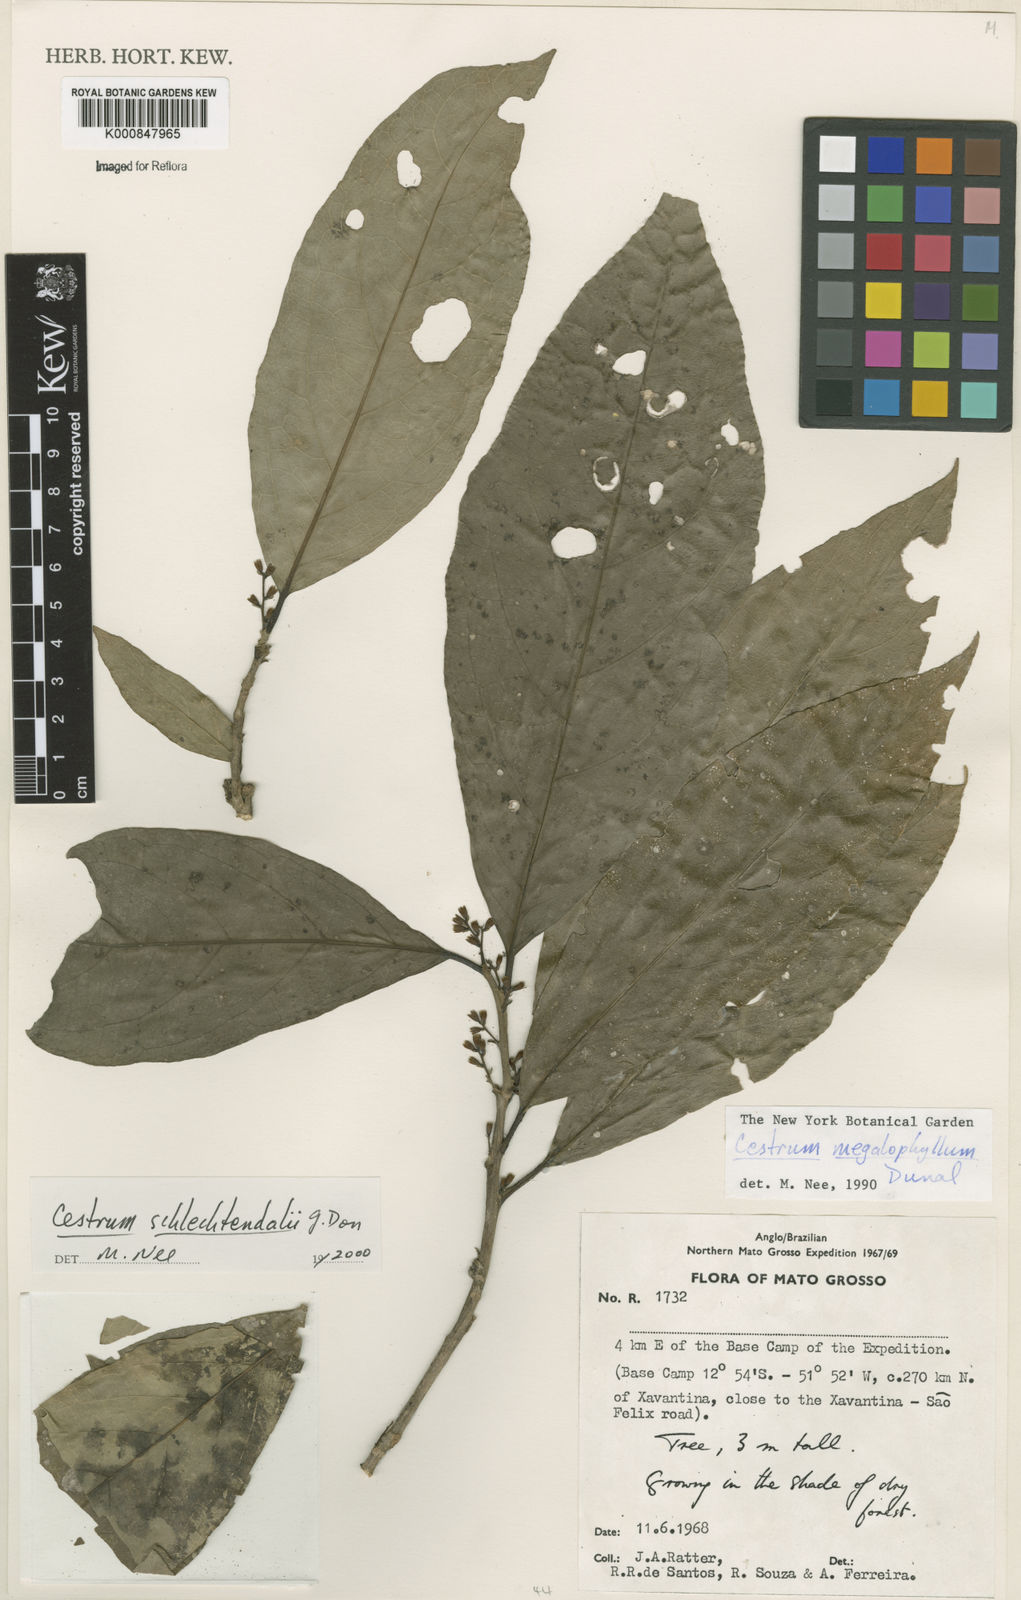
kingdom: Plantae
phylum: Tracheophyta
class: Magnoliopsida
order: Solanales
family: Solanaceae
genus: Cestrum
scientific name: Cestrum schlechtendalii
